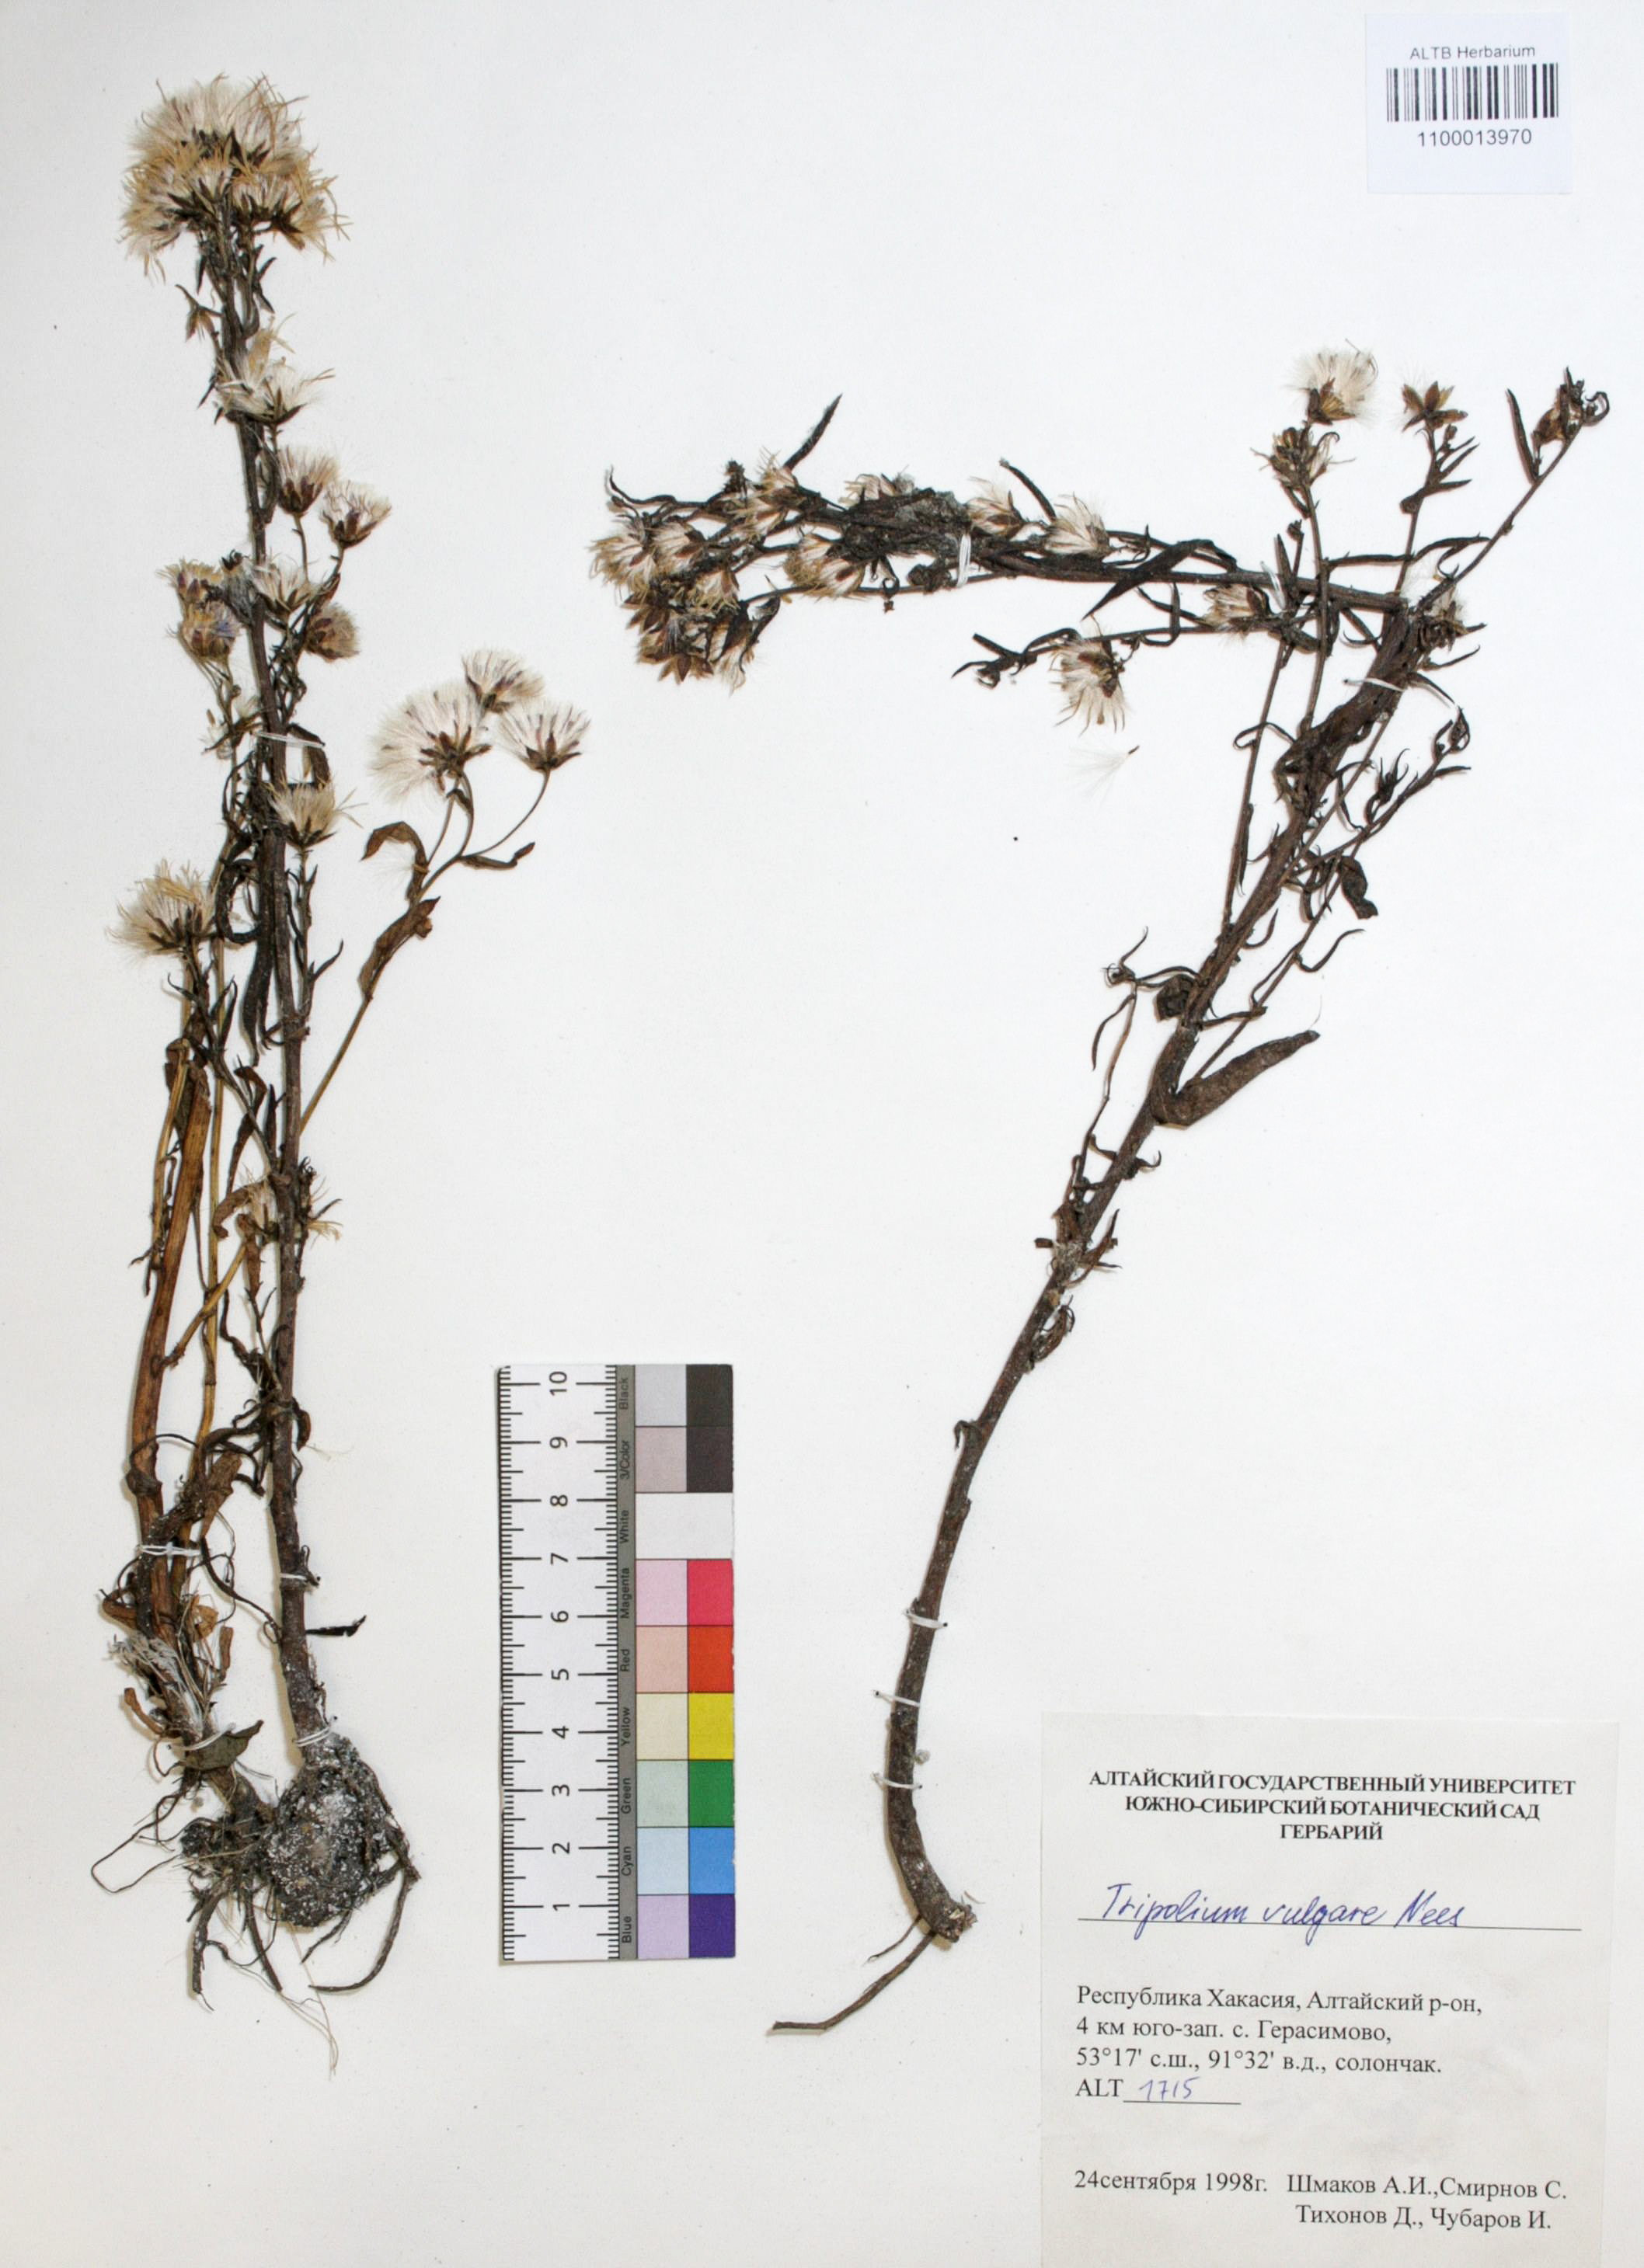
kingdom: Plantae
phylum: Tracheophyta
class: Magnoliopsida
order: Asterales
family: Asteraceae
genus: Tripolium
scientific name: Tripolium pannonicum
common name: Sea aster
